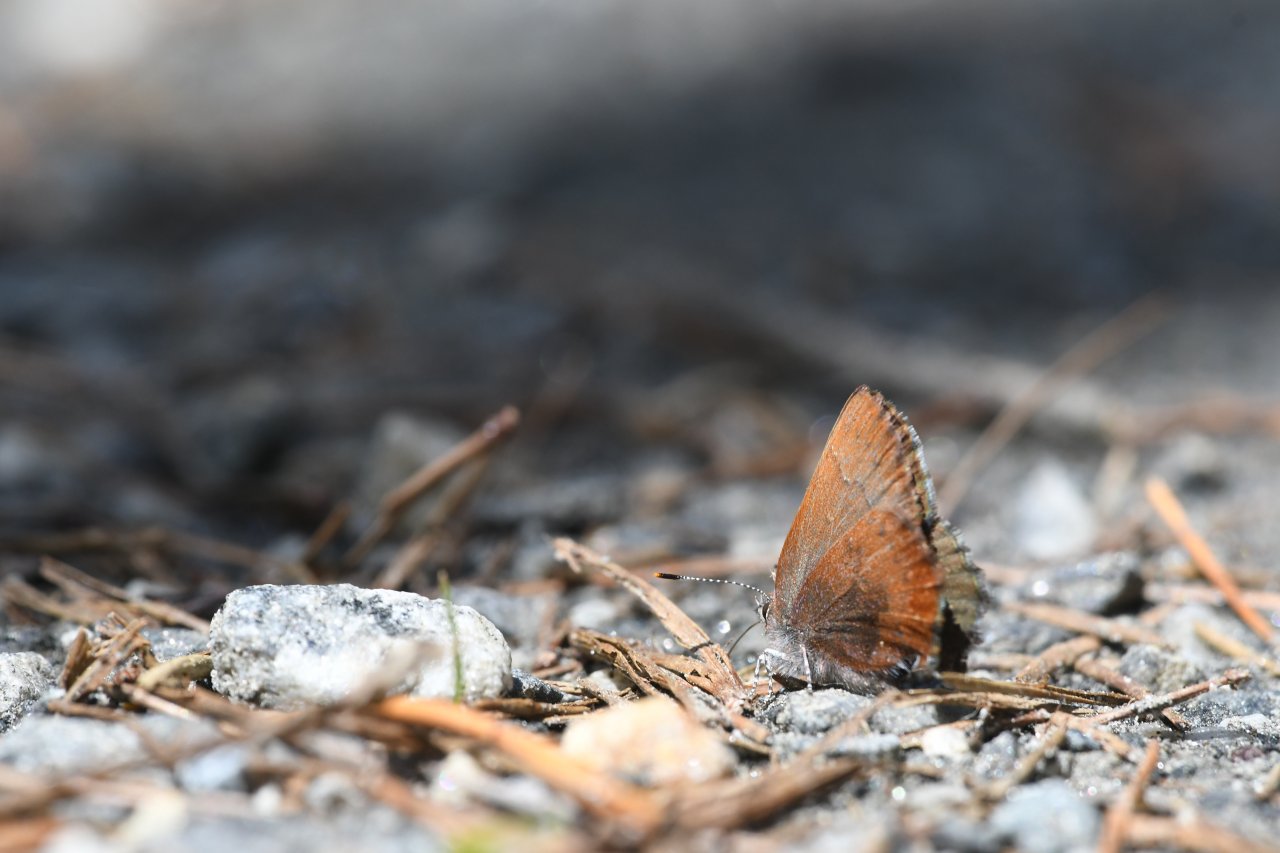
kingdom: Animalia
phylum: Arthropoda
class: Insecta
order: Lepidoptera
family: Lycaenidae
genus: Incisalia
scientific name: Incisalia irioides
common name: Brown Elfin
